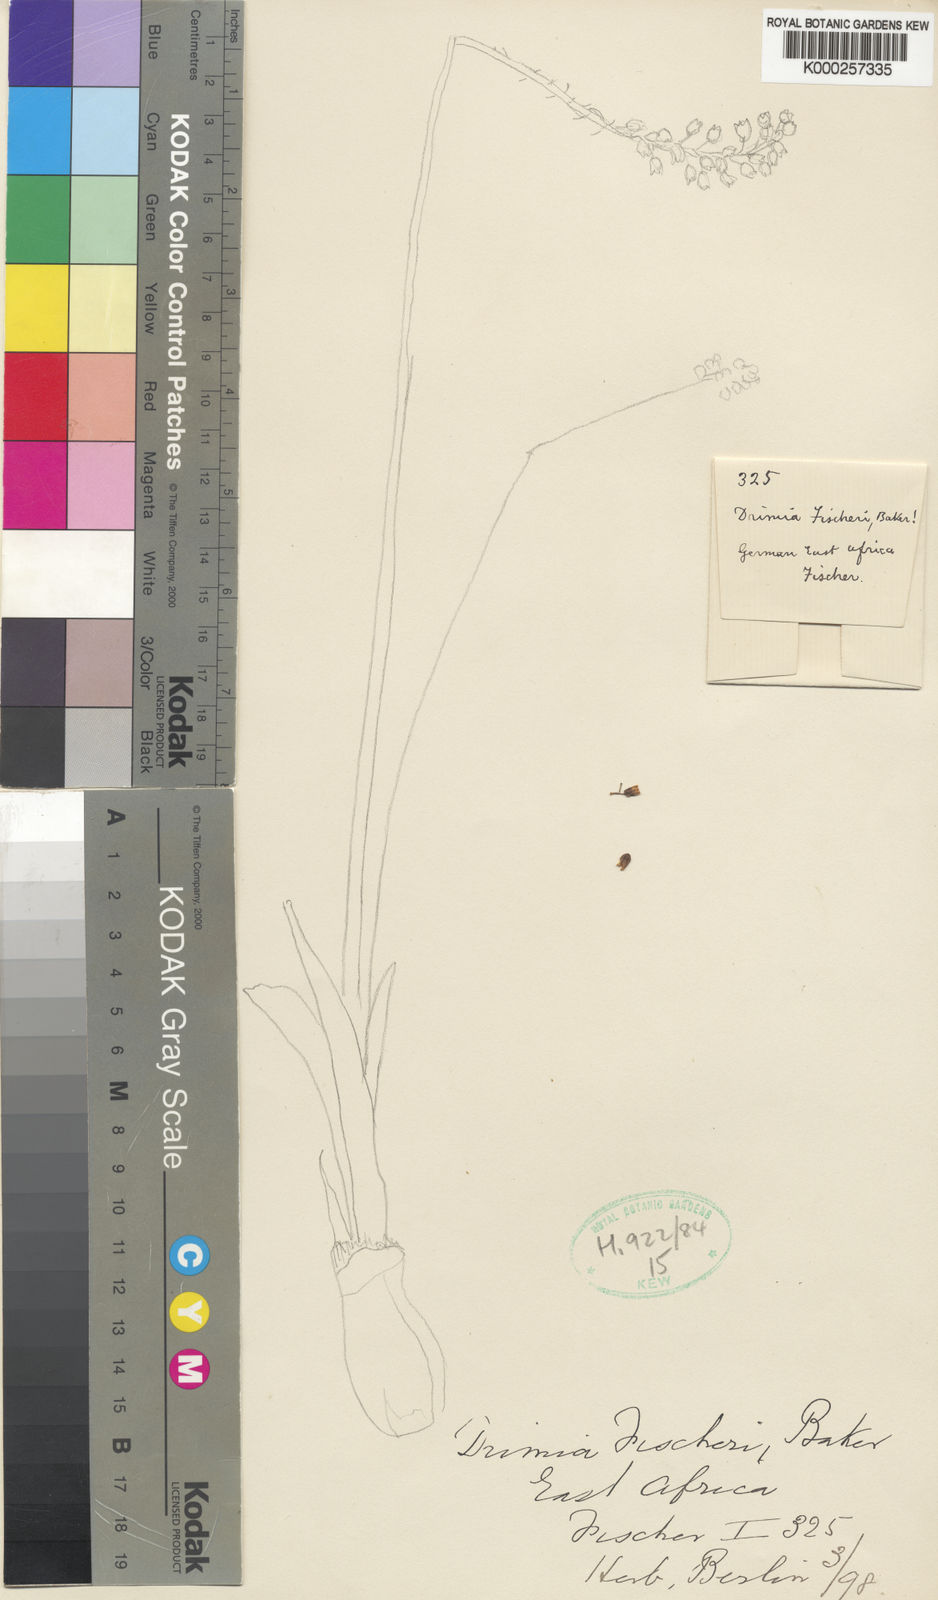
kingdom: Plantae
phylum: Tracheophyta
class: Liliopsida
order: Asparagales
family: Asparagaceae
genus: Drimiopsis
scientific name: Drimiopsis fischeri
